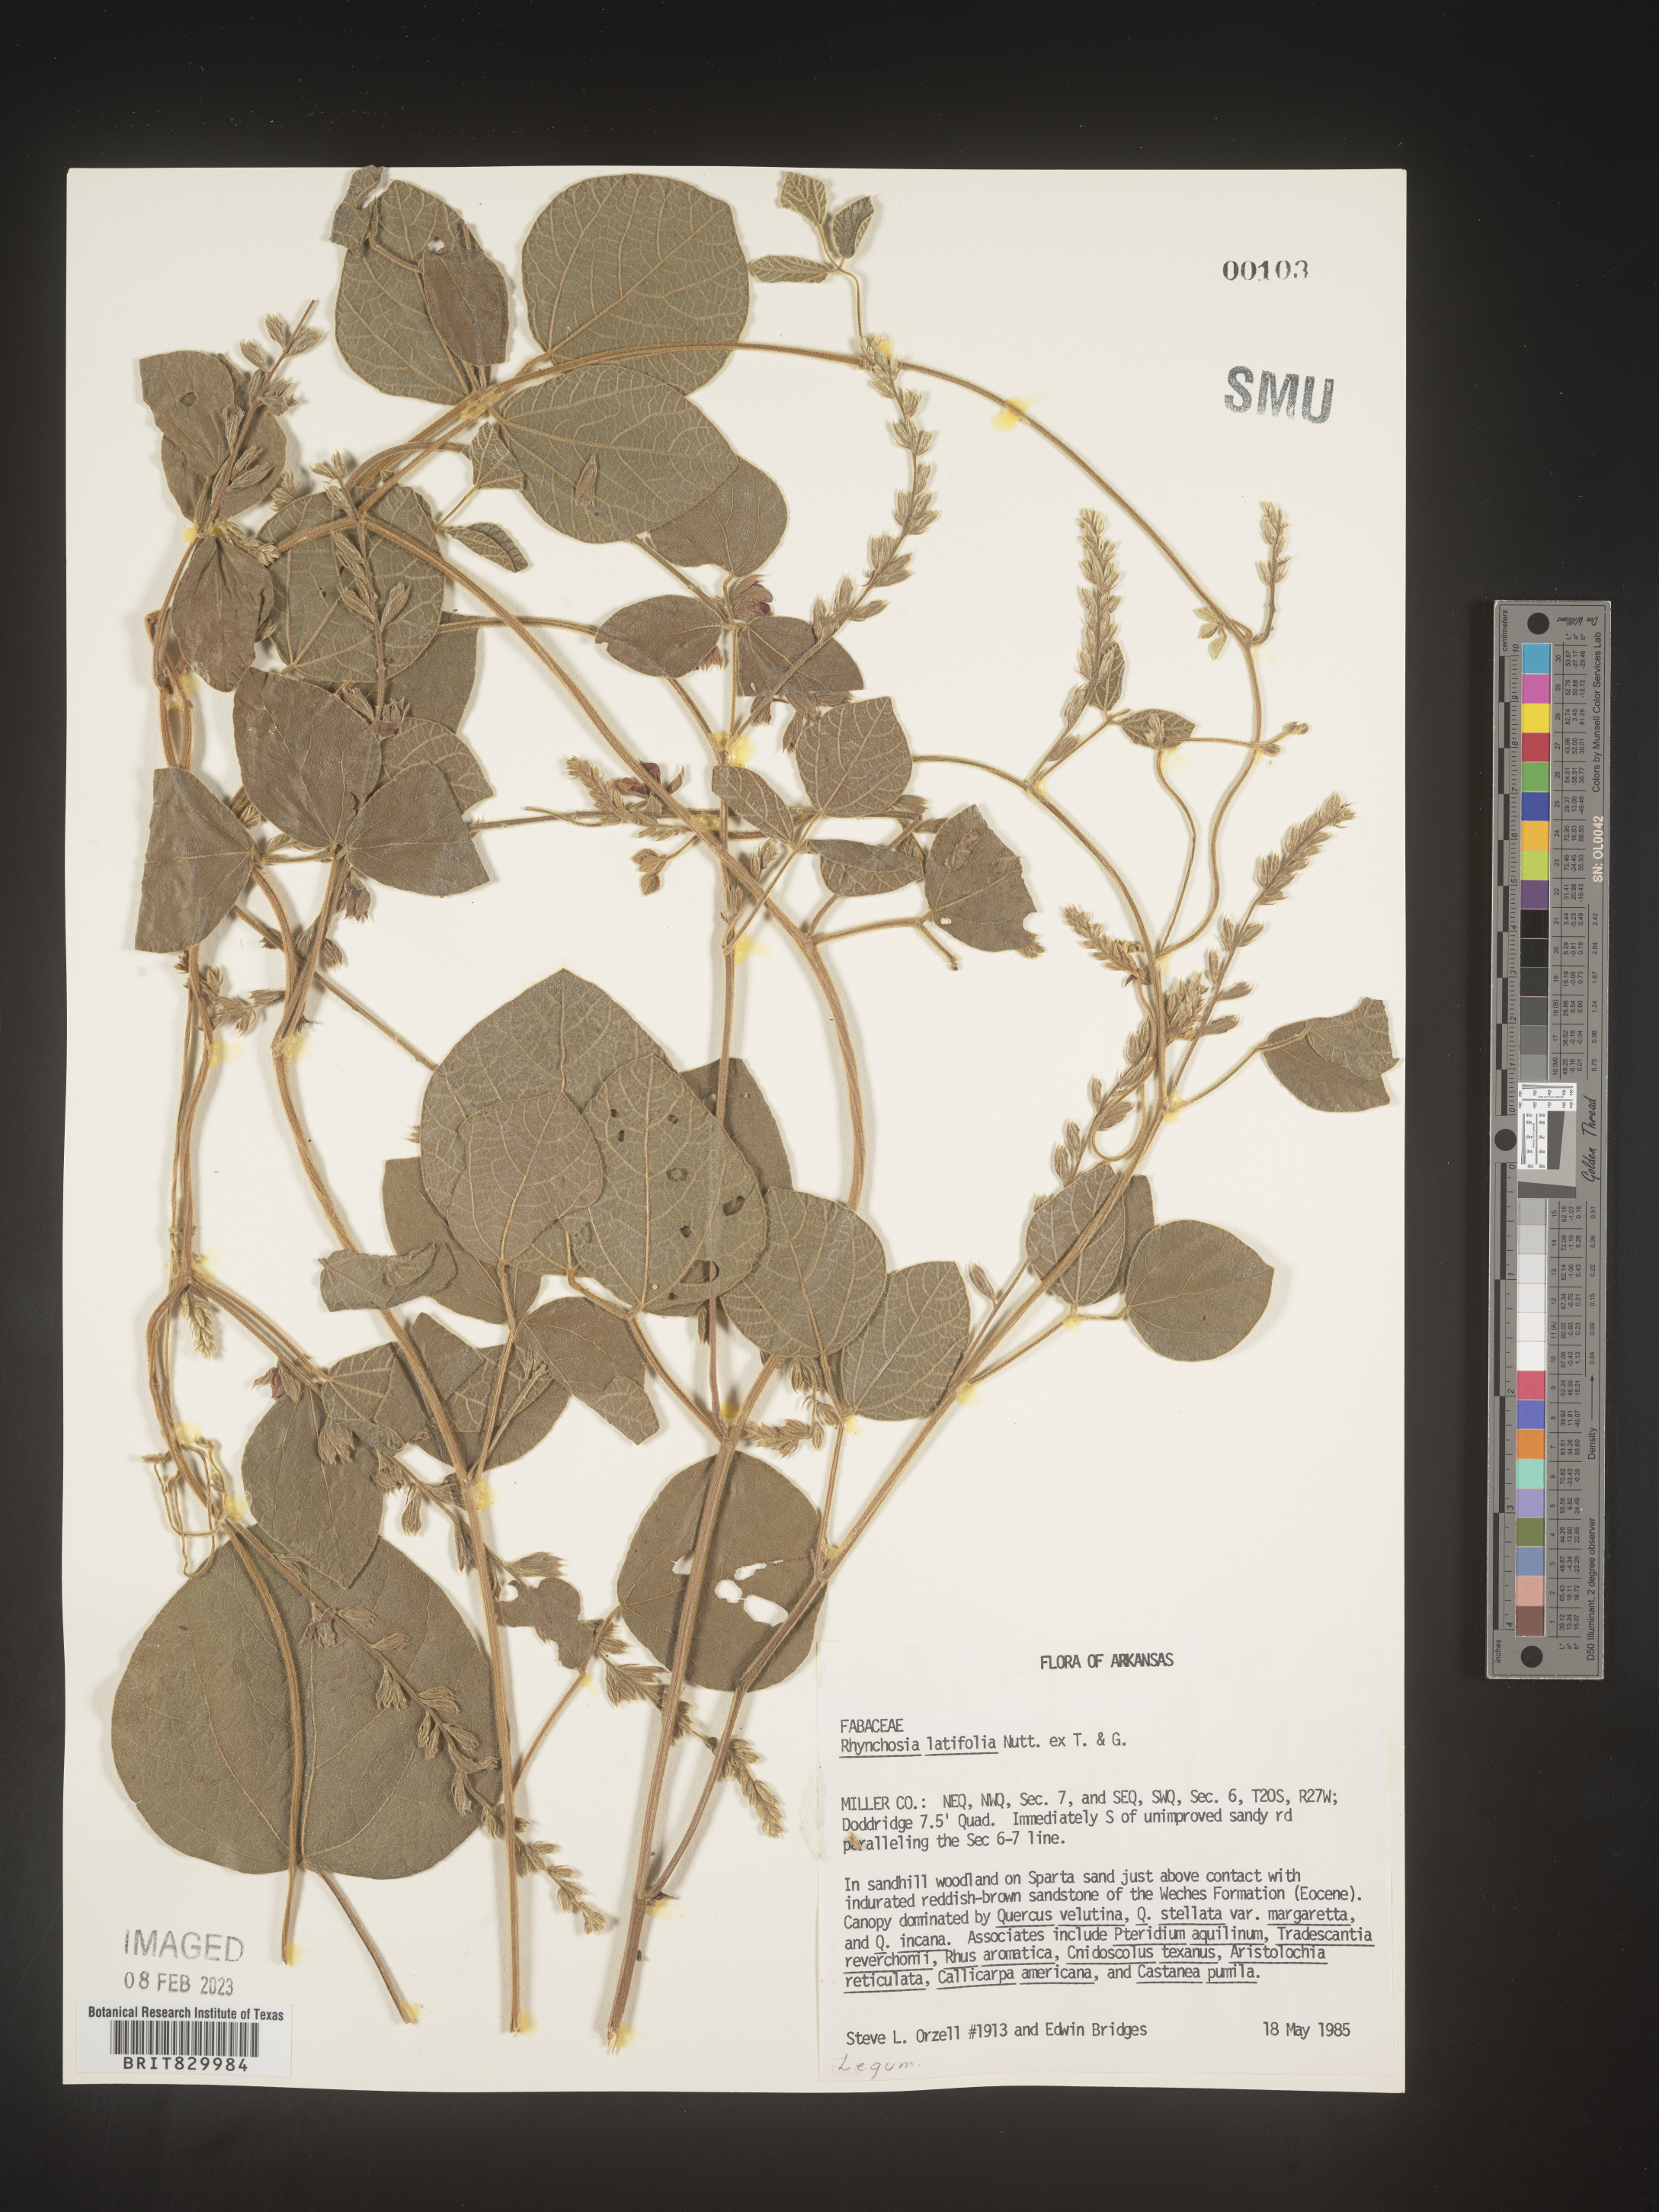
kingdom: Plantae
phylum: Tracheophyta
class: Magnoliopsida
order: Fabales
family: Fabaceae
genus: Rhynchosia
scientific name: Rhynchosia latifolia
